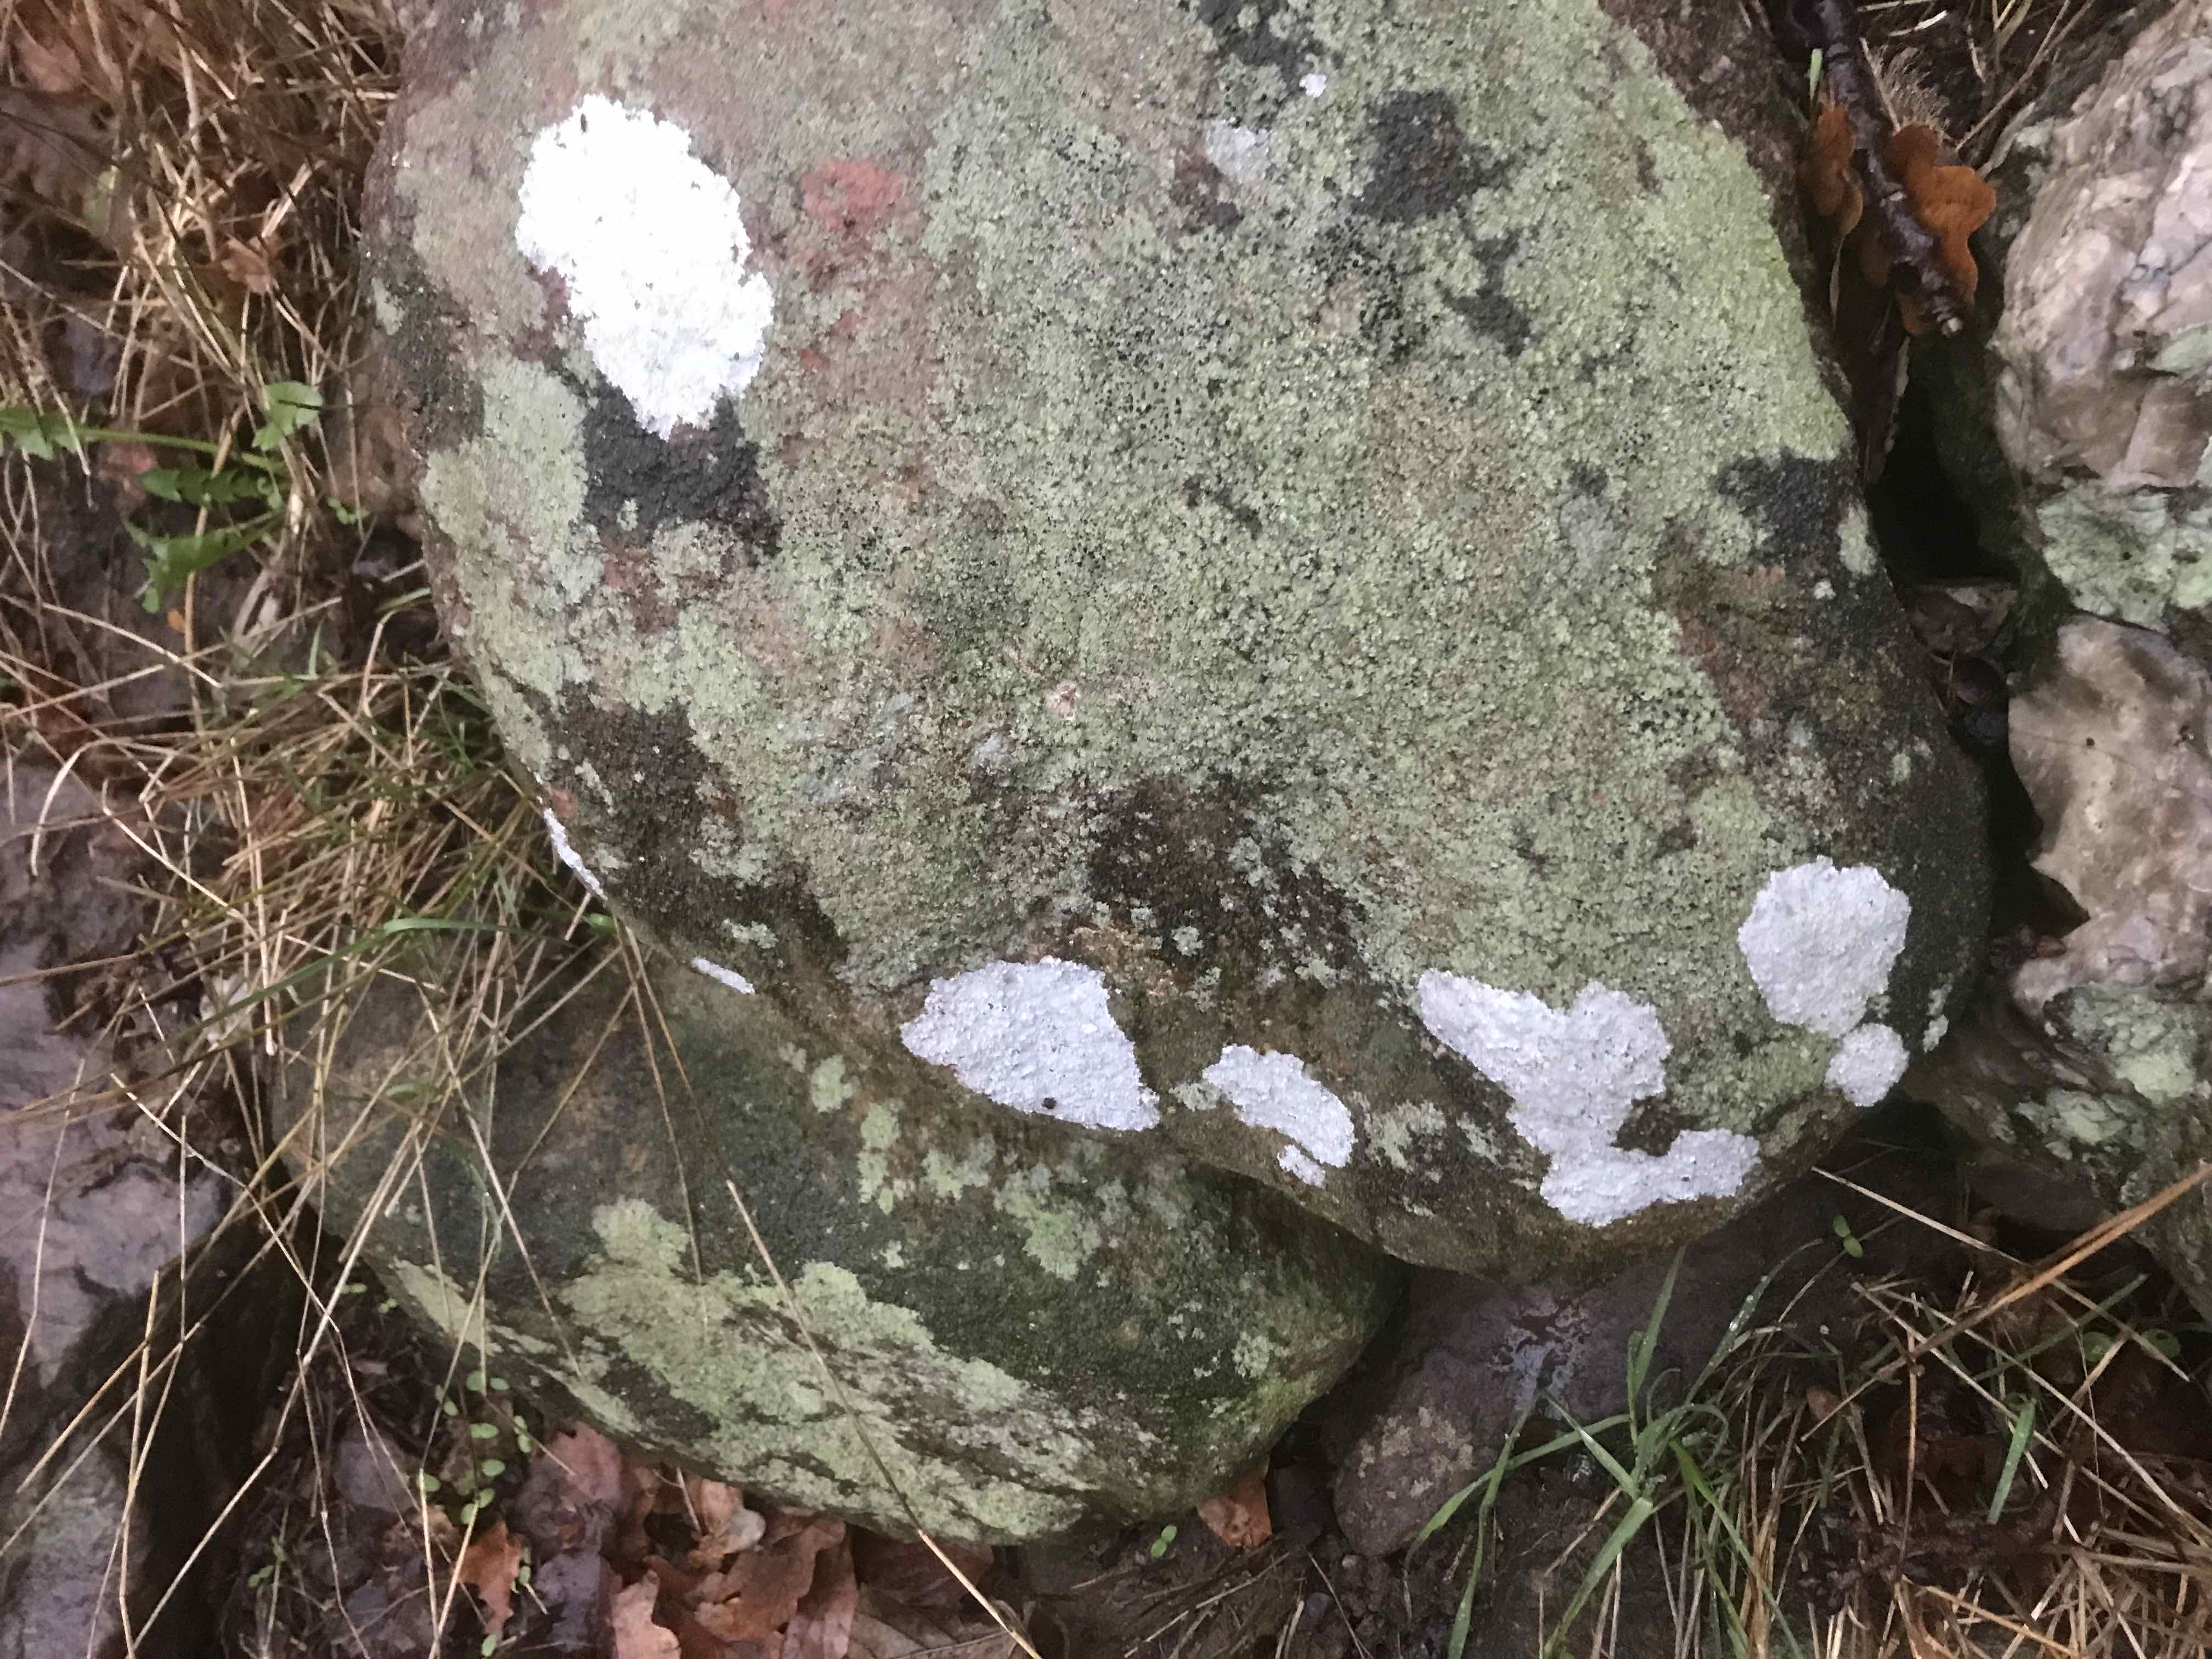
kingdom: Fungi
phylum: Ascomycota
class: Lecanoromycetes
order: Lecanorales
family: Lecanoraceae
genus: Glaucomaria
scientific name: Glaucomaria rupicola
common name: stengærde-kantskivelav
